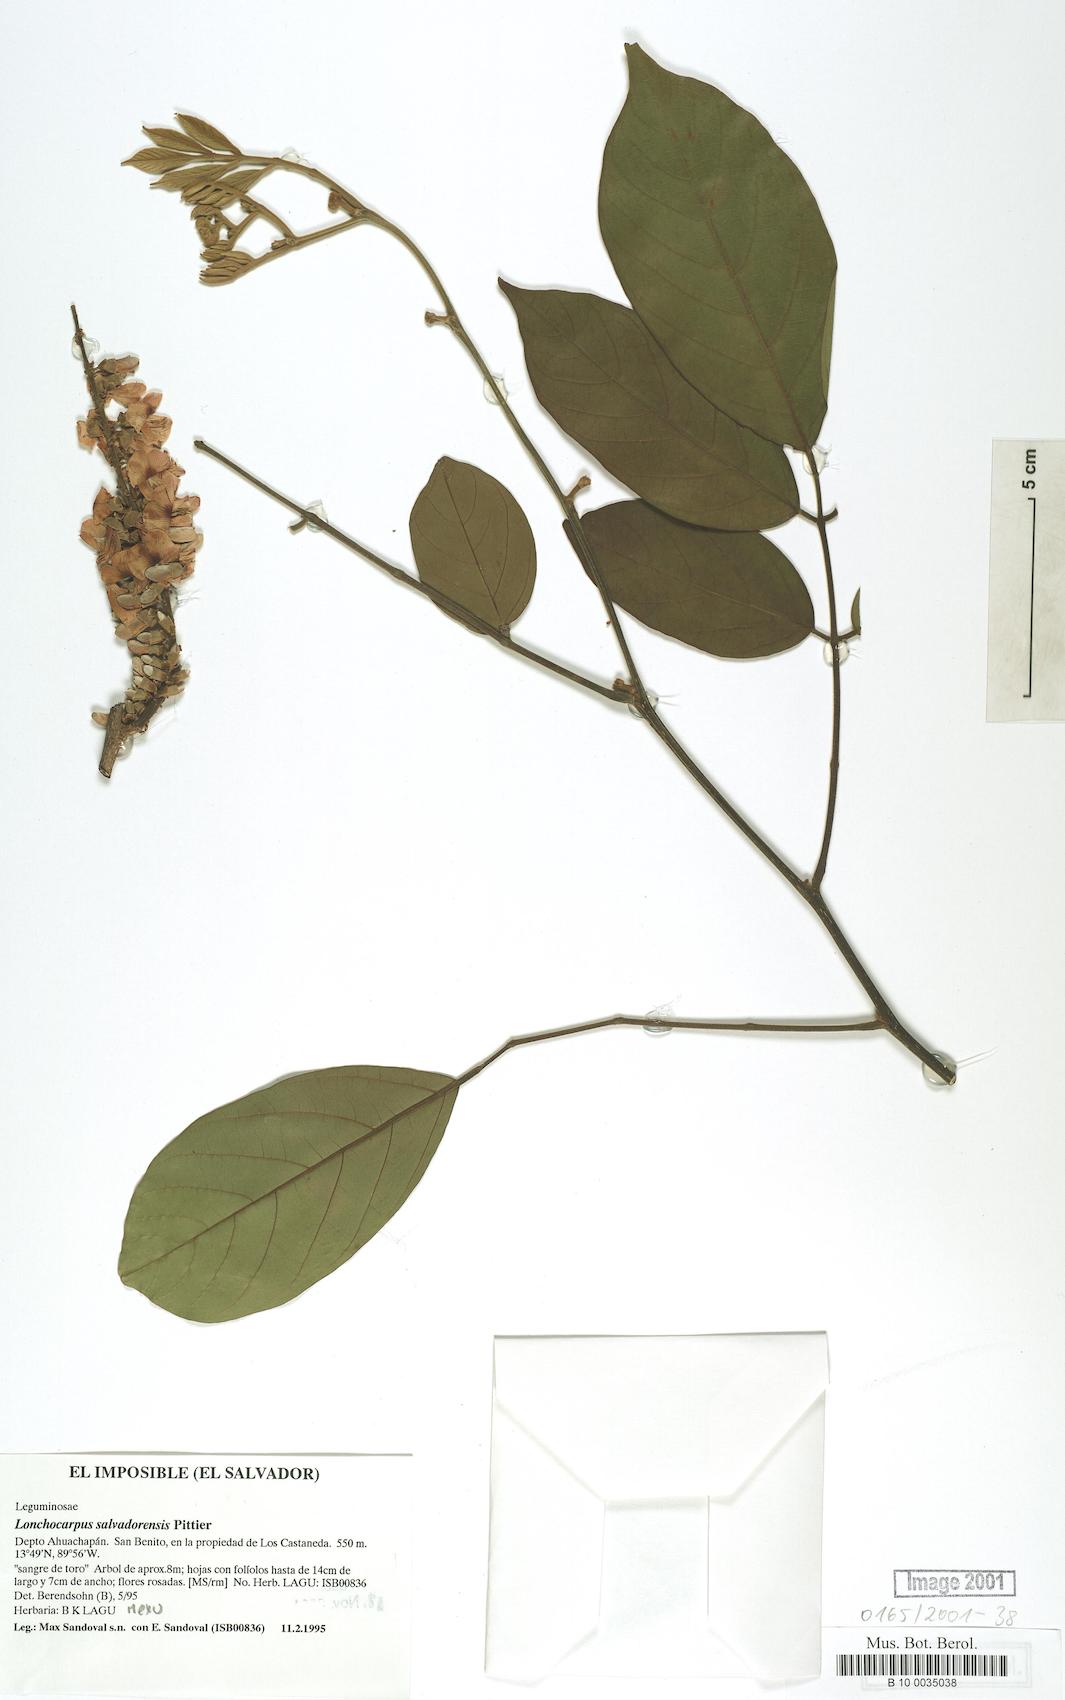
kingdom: Plantae
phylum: Tracheophyta
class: Magnoliopsida
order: Fabales
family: Fabaceae
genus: Lonchocarpus
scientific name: Lonchocarpus salvadorensis
